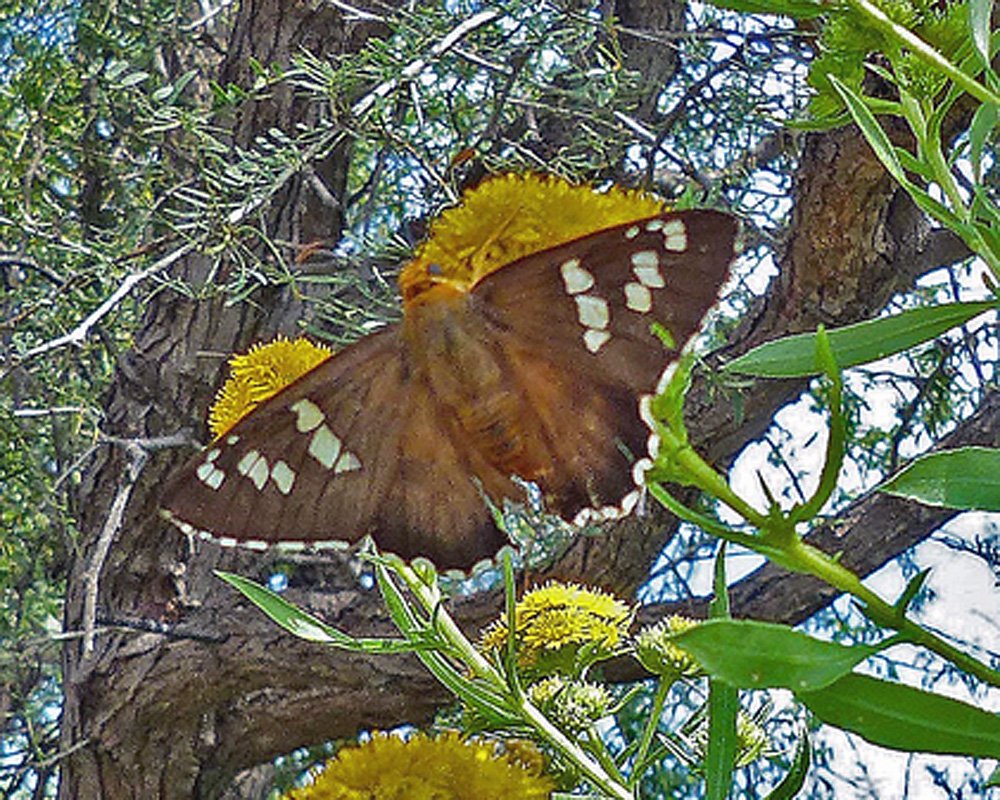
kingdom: Animalia
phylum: Arthropoda
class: Insecta
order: Lepidoptera
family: Hesperiidae
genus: Pyrrhopyge
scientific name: Pyrrhopyge araxes
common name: Dull Firetip
